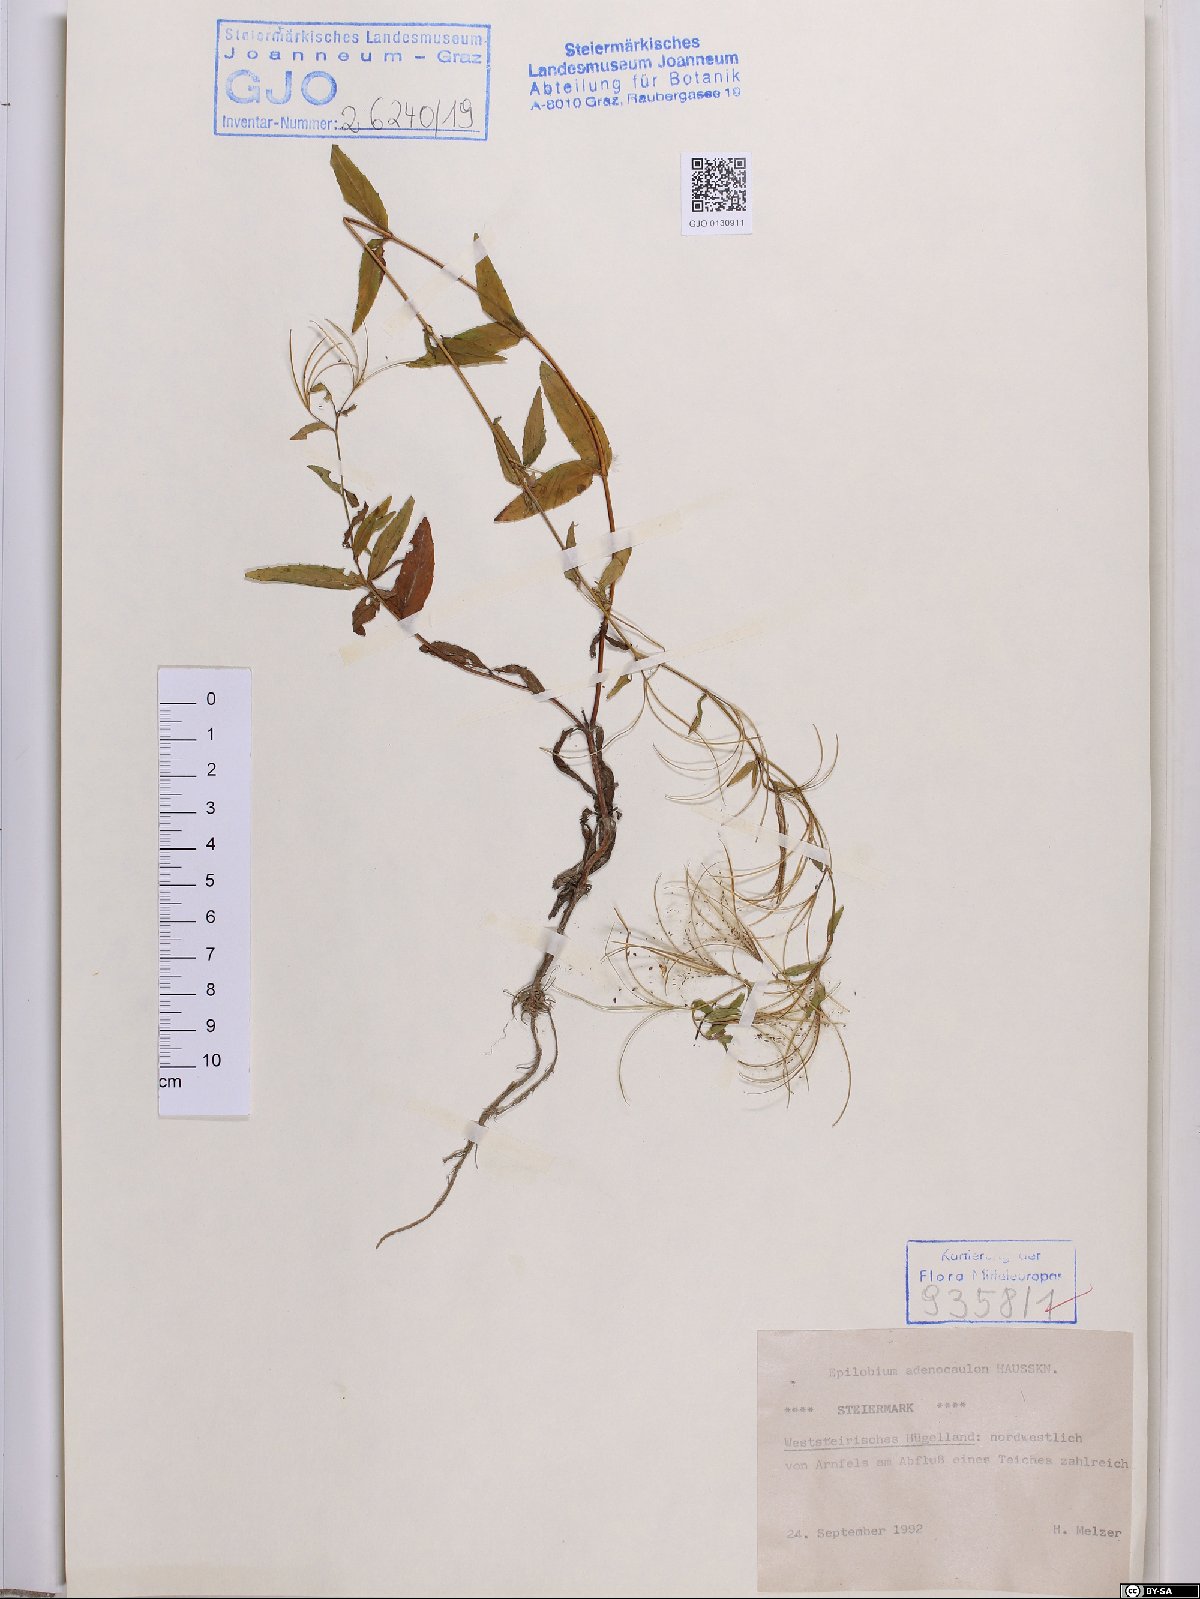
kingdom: Plantae
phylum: Tracheophyta
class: Magnoliopsida
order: Myrtales
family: Onagraceae
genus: Epilobium
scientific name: Epilobium ciliatum
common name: American willowherb
